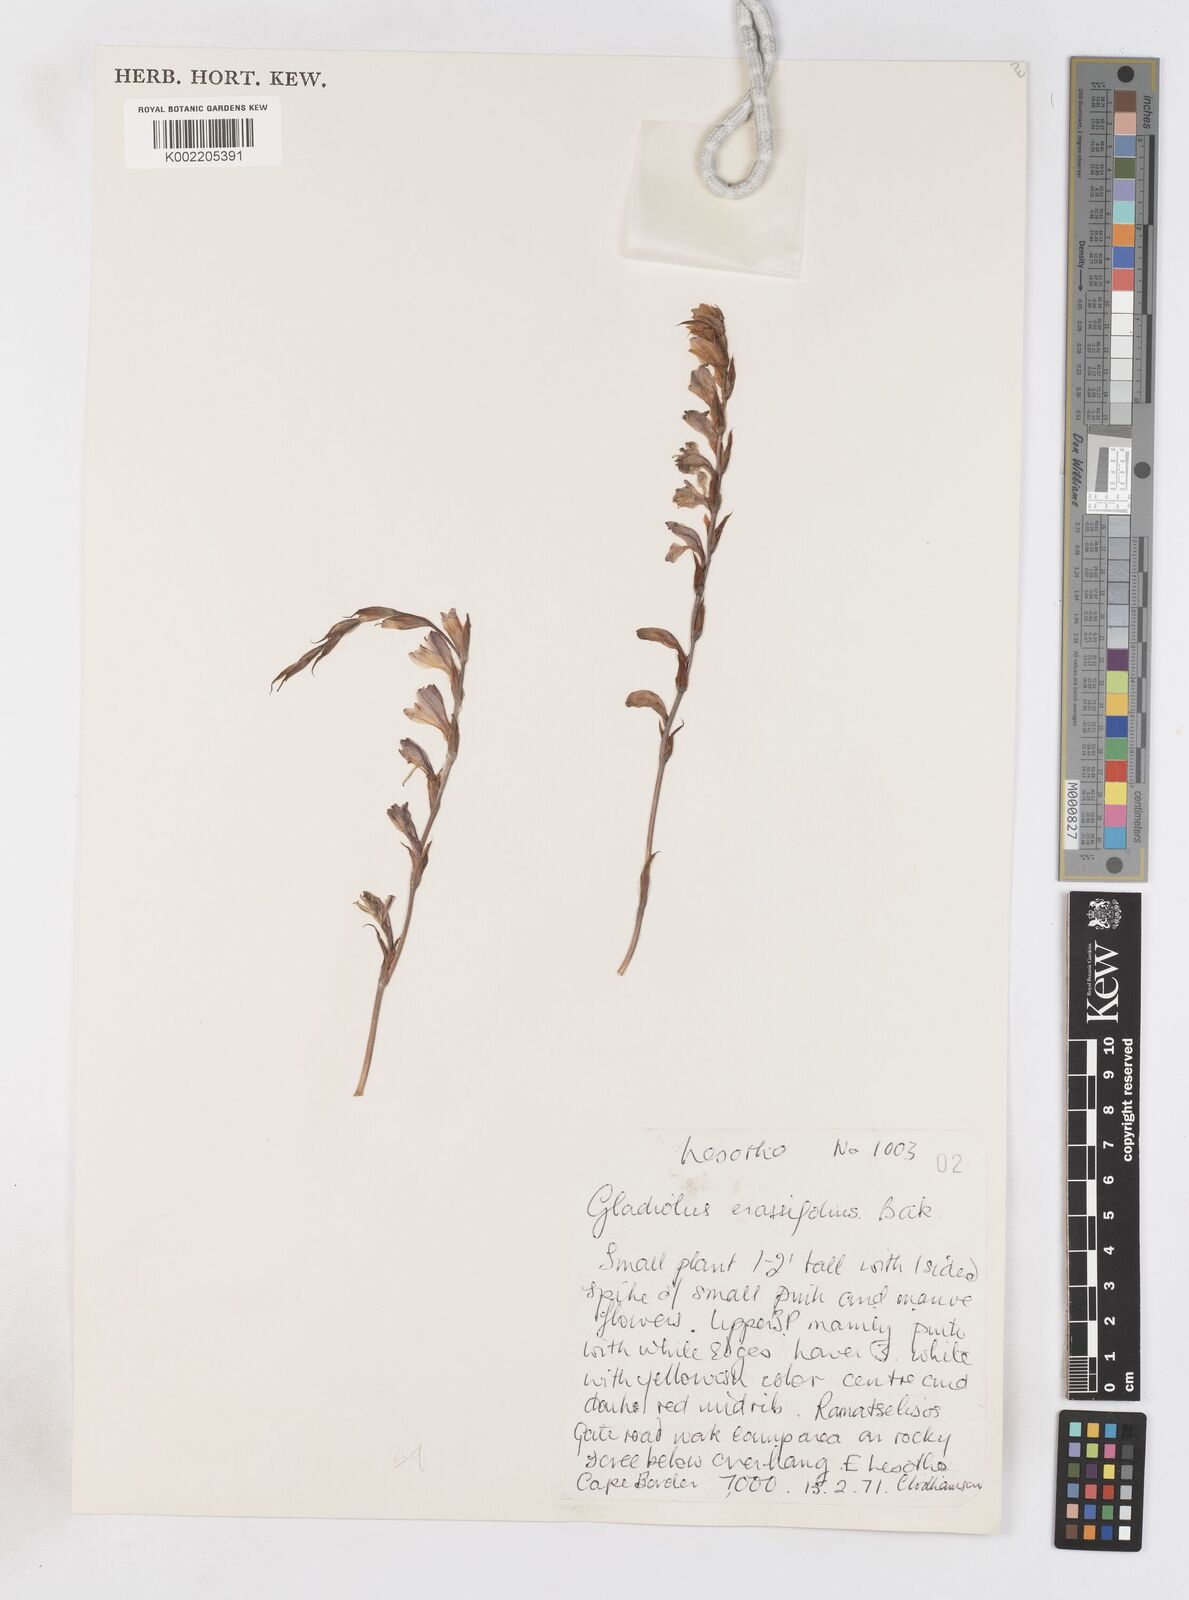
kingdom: Plantae
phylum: Tracheophyta
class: Liliopsida
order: Asparagales
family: Iridaceae
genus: Gladiolus
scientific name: Gladiolus crassifolius
